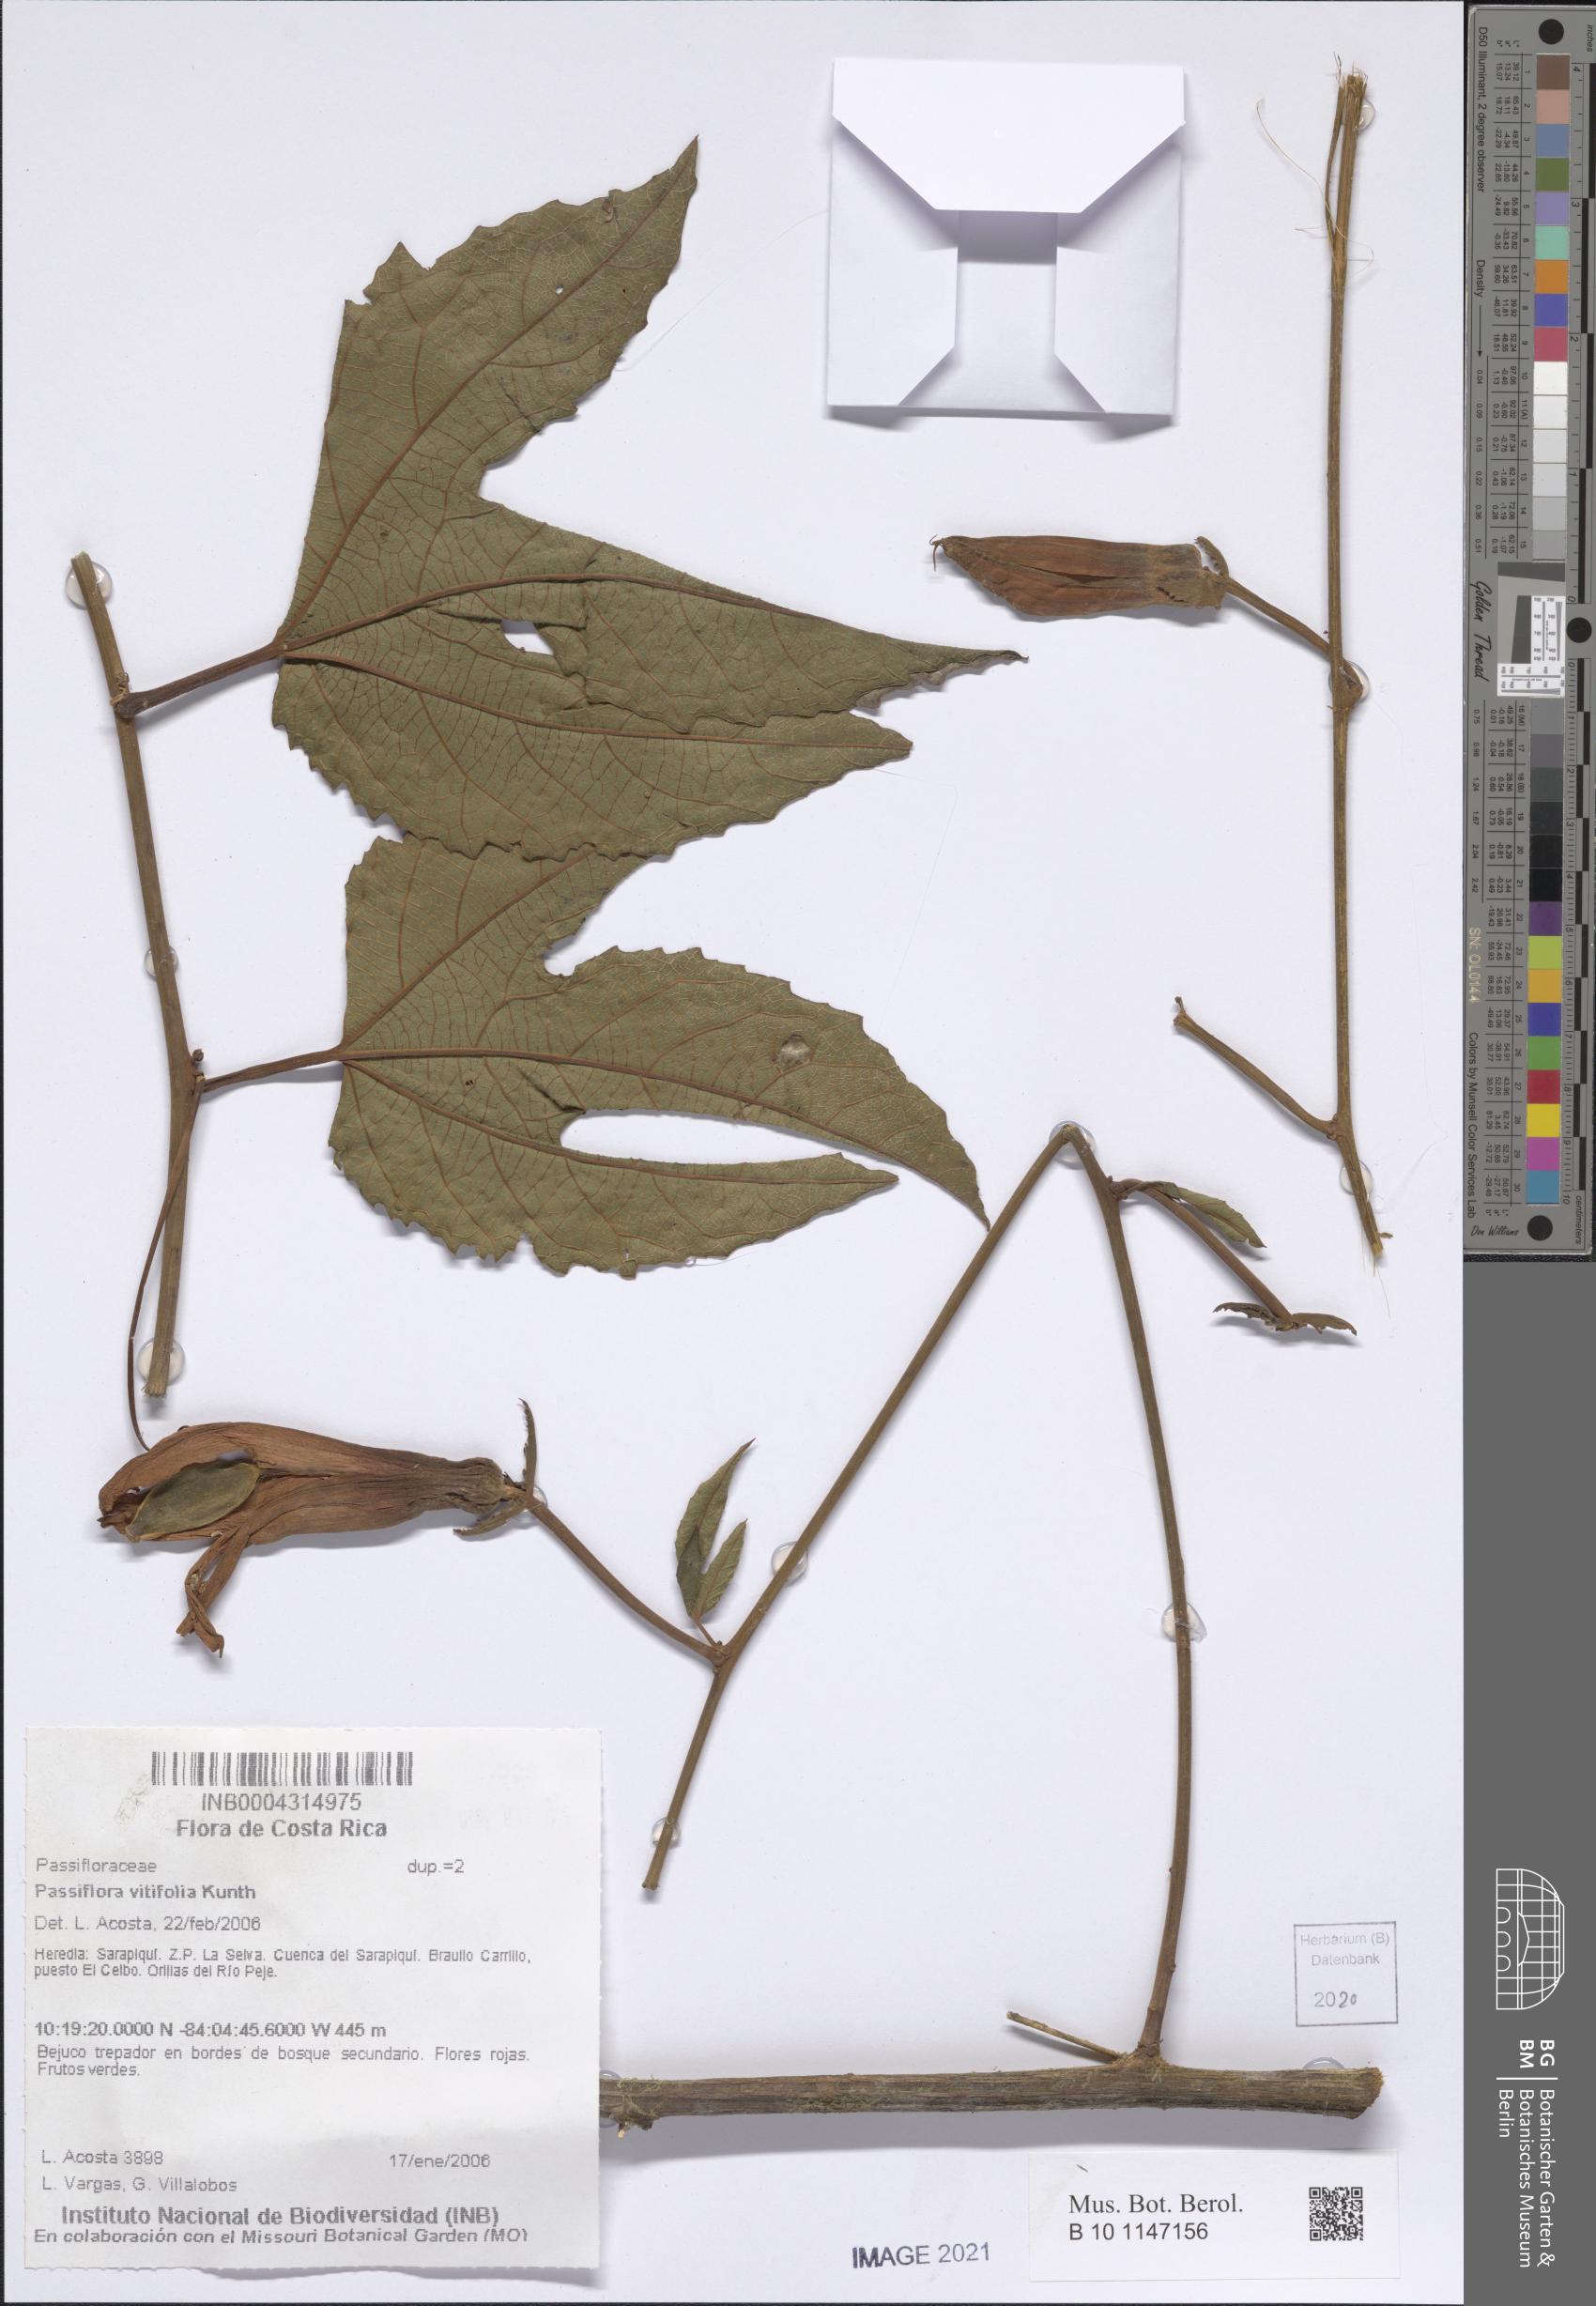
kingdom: Plantae
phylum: Tracheophyta
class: Magnoliopsida
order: Malpighiales
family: Passifloraceae
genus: Passiflora
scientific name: Passiflora vitifolia
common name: Perfumed passionflower
